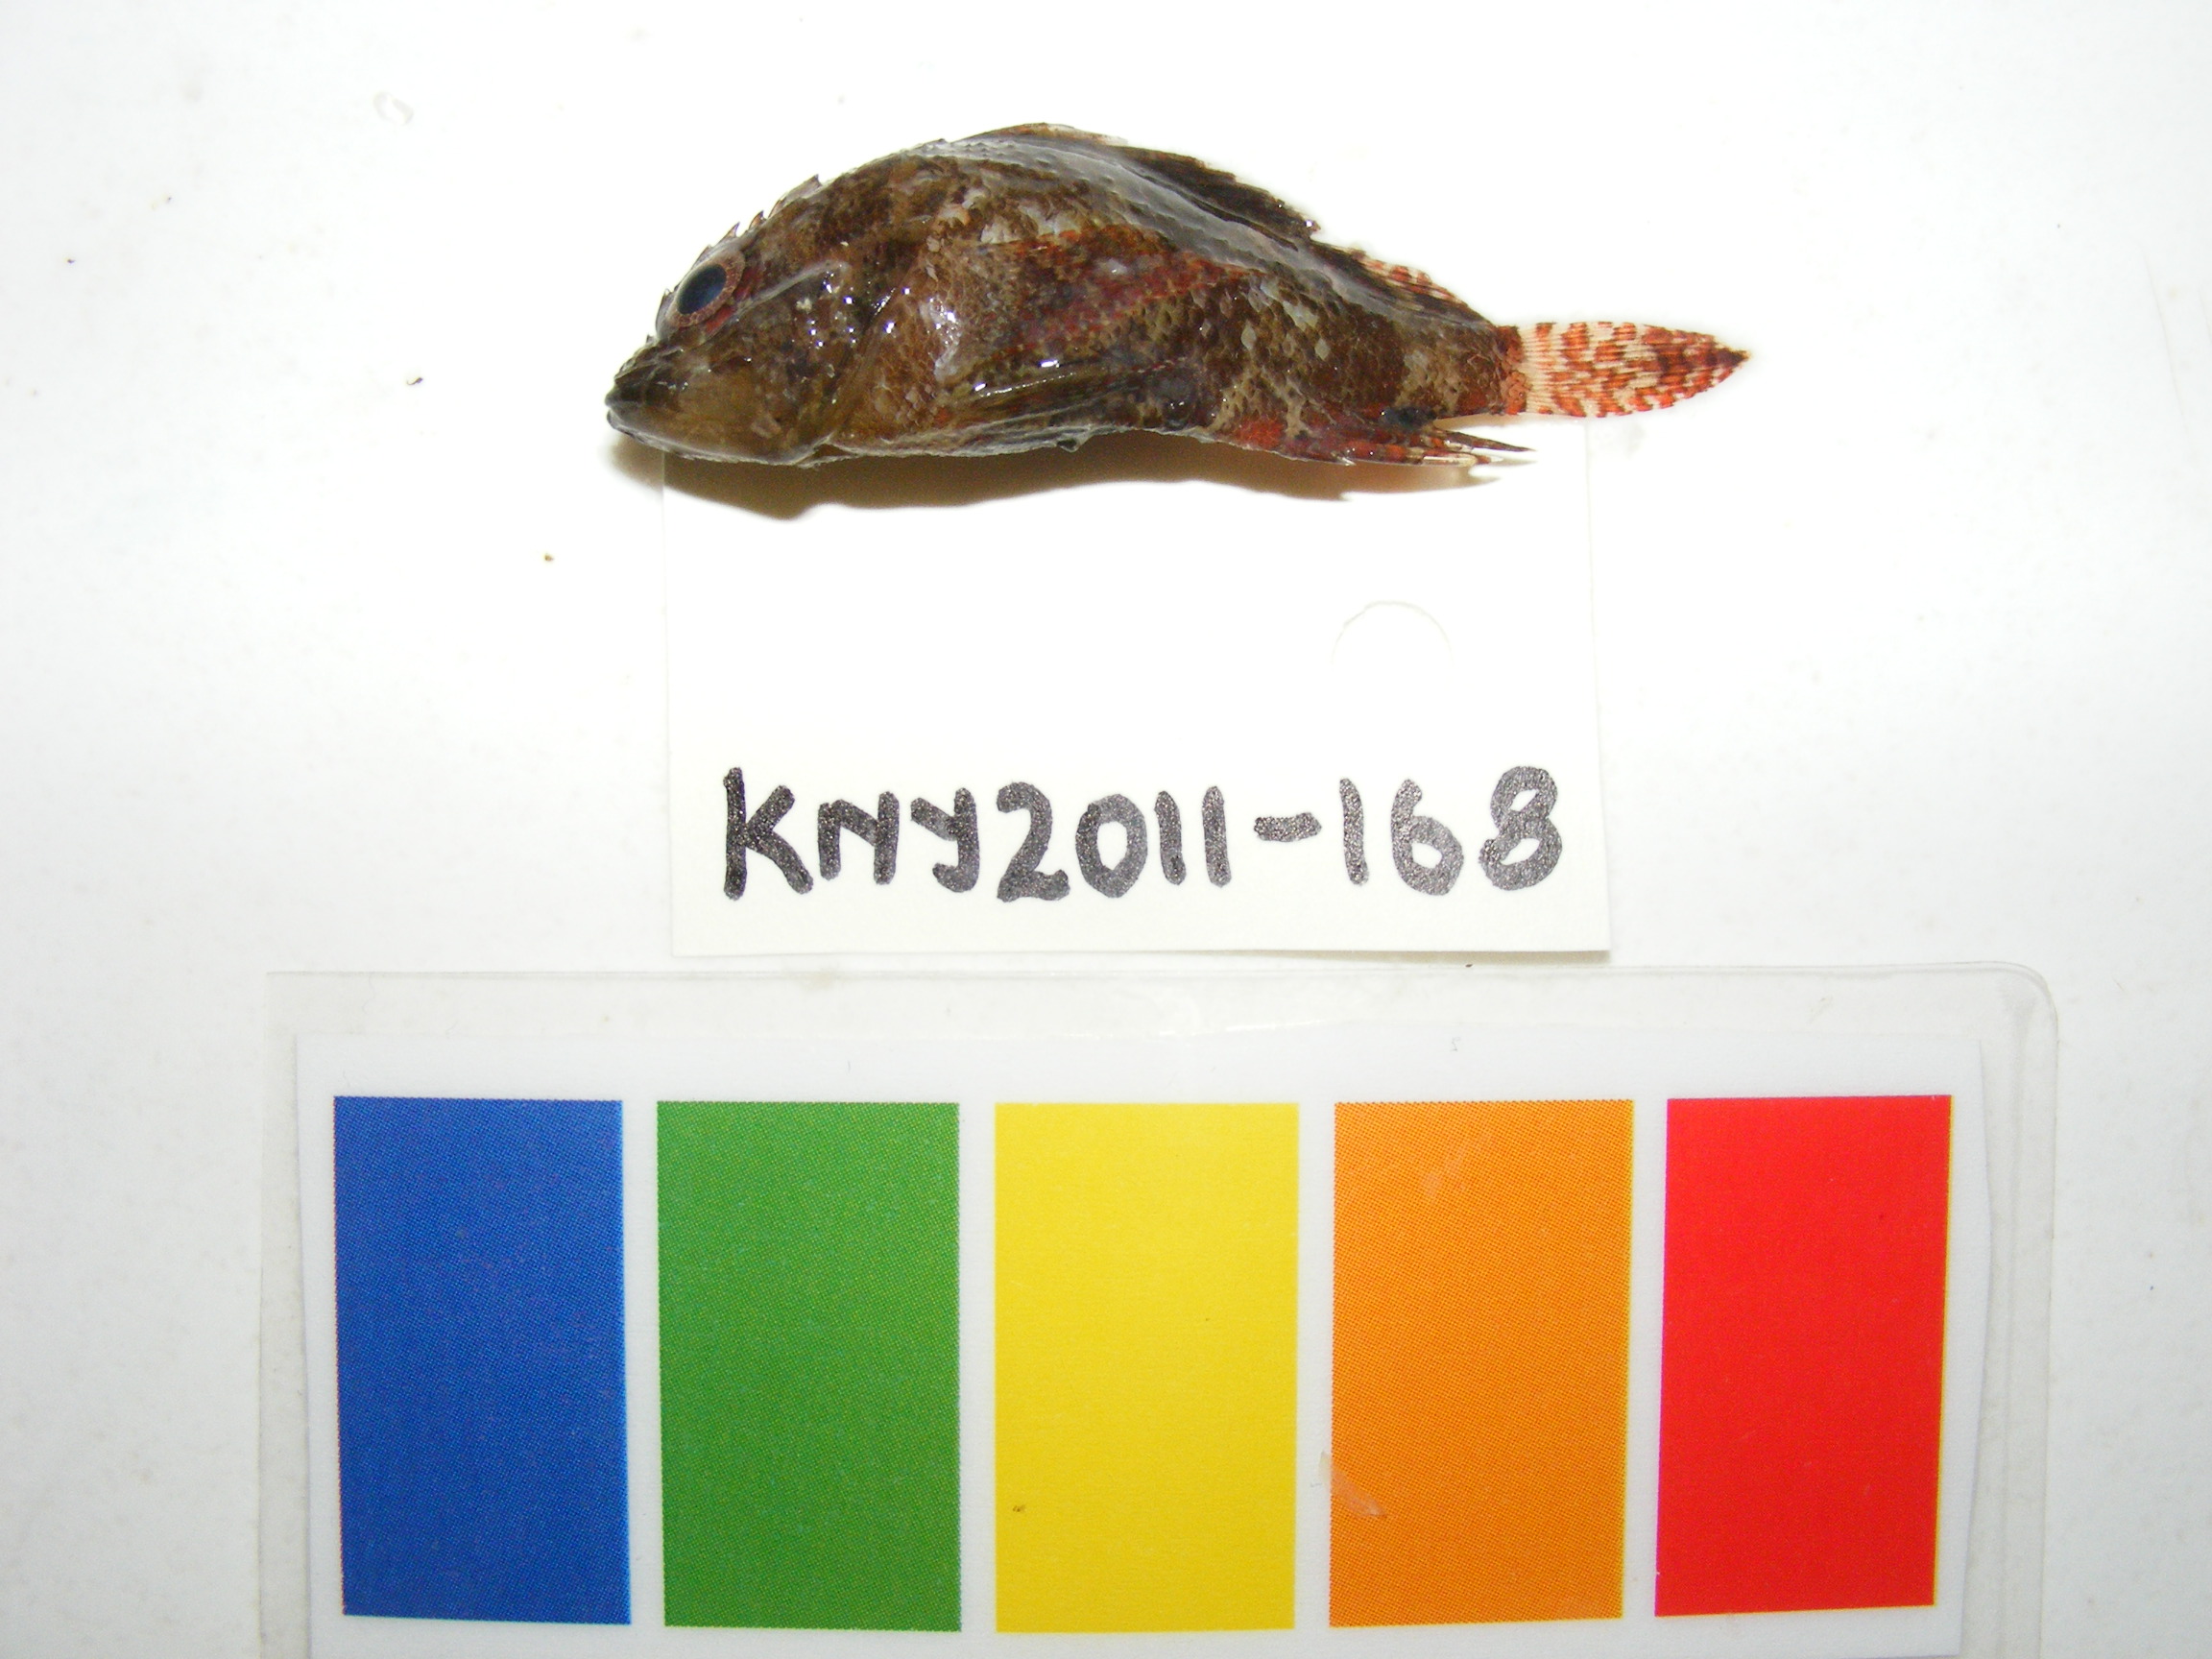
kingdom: Animalia
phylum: Chordata
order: Scorpaeniformes
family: Scorpaenidae
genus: Scorpaenodes
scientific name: Scorpaenodes guamensis
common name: Guam scorpionfish
